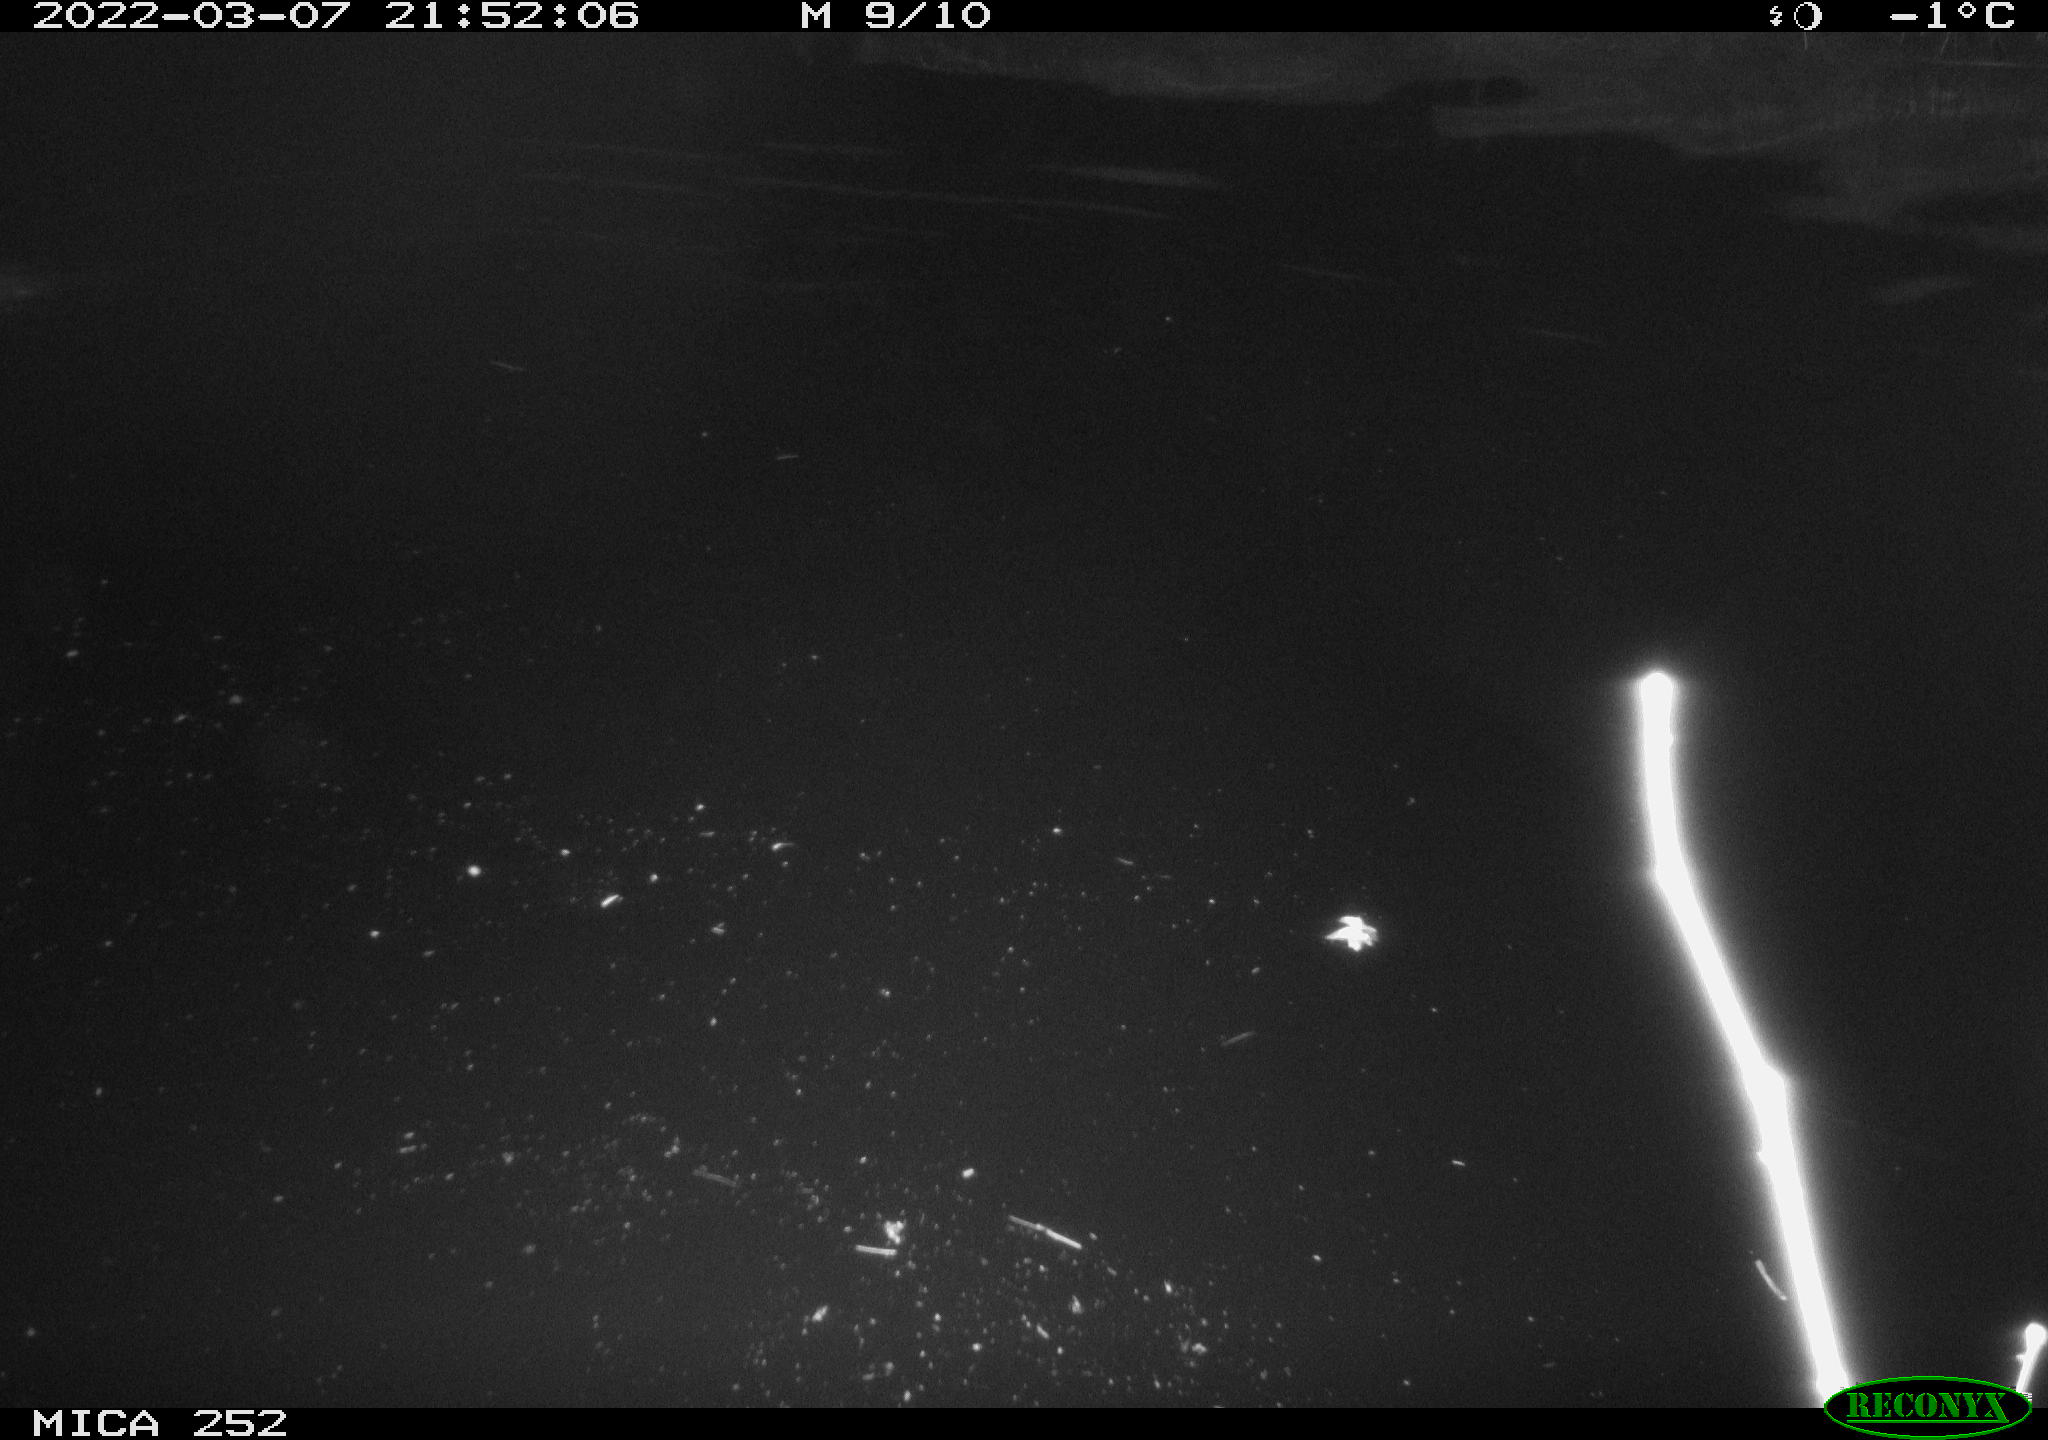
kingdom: Animalia
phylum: Chordata
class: Mammalia
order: Rodentia
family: Castoridae
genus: Castor
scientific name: Castor fiber
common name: Eurasian beaver
